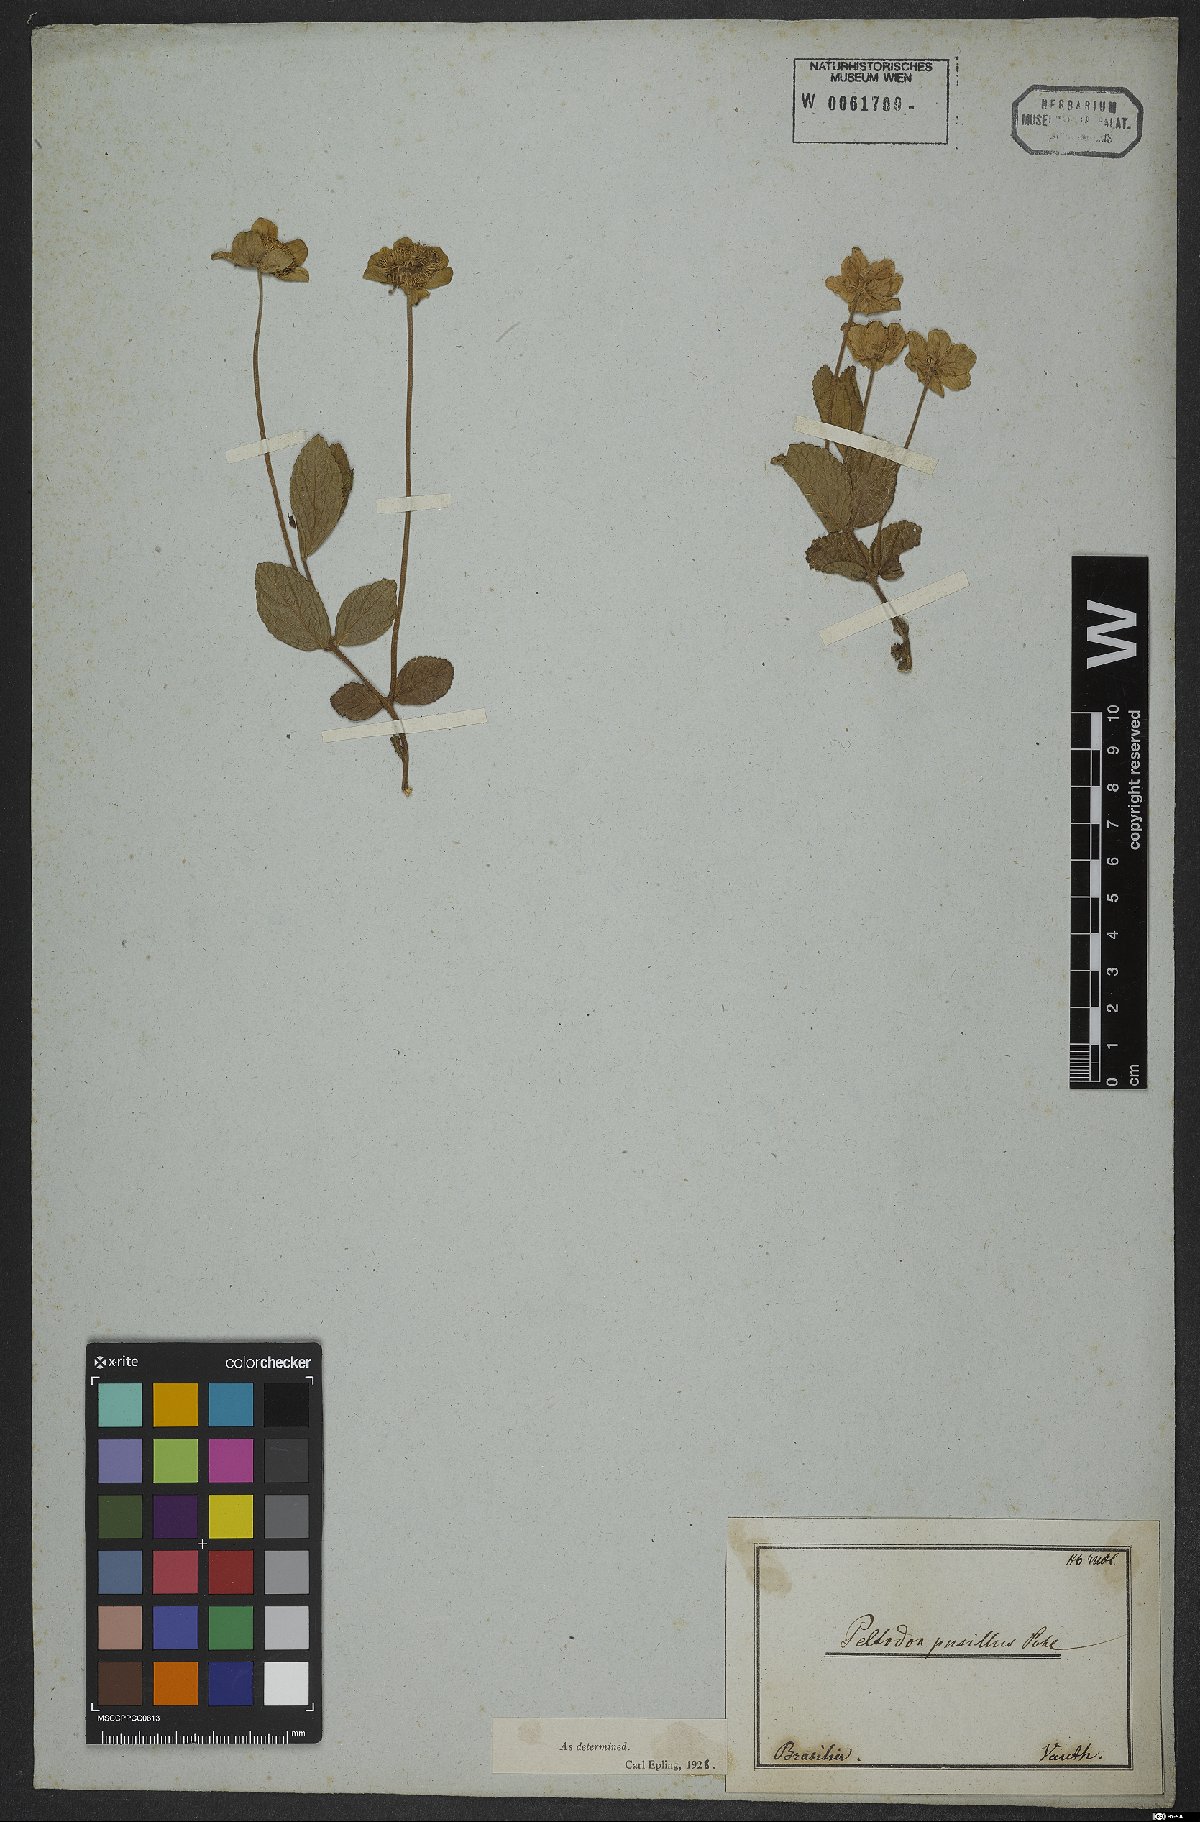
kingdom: Plantae
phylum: Tracheophyta
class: Magnoliopsida
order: Lamiales
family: Lamiaceae
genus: Hyptis
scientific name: Hyptis pusilla
